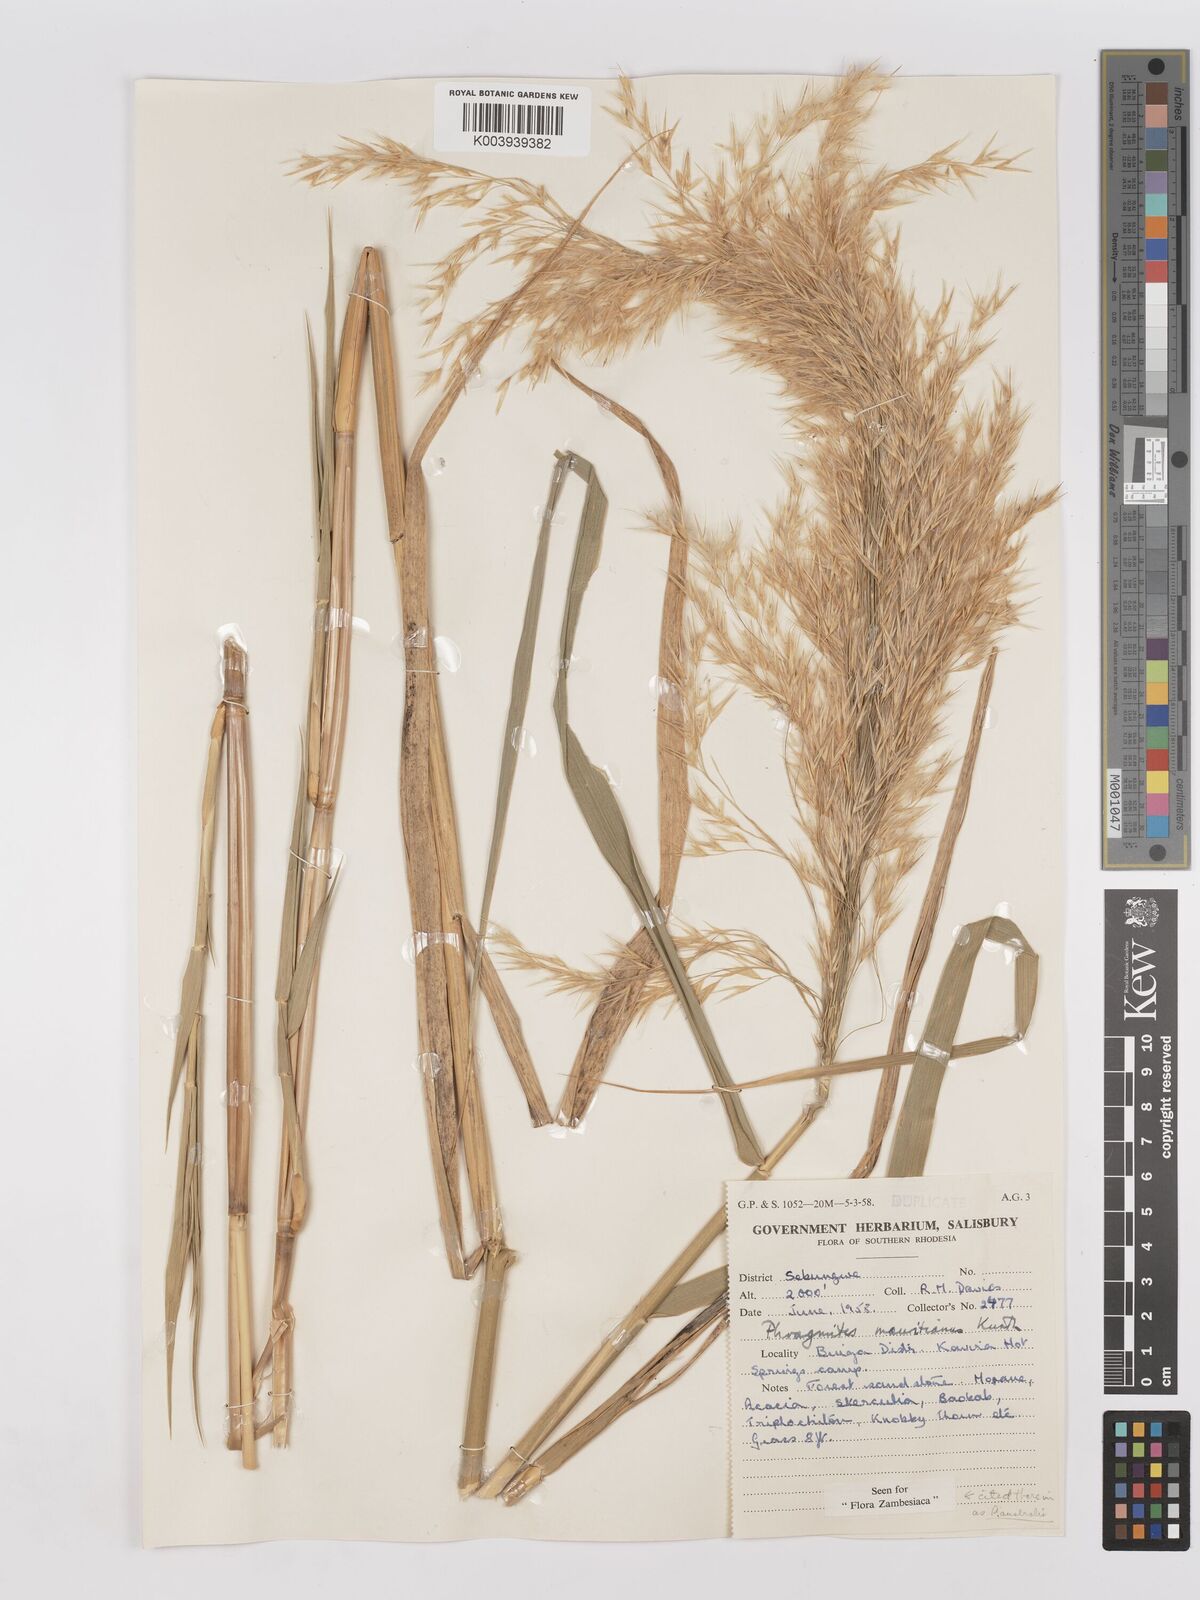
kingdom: Plantae
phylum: Tracheophyta
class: Liliopsida
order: Poales
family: Poaceae
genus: Phragmites
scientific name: Phragmites australis
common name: Common reed
